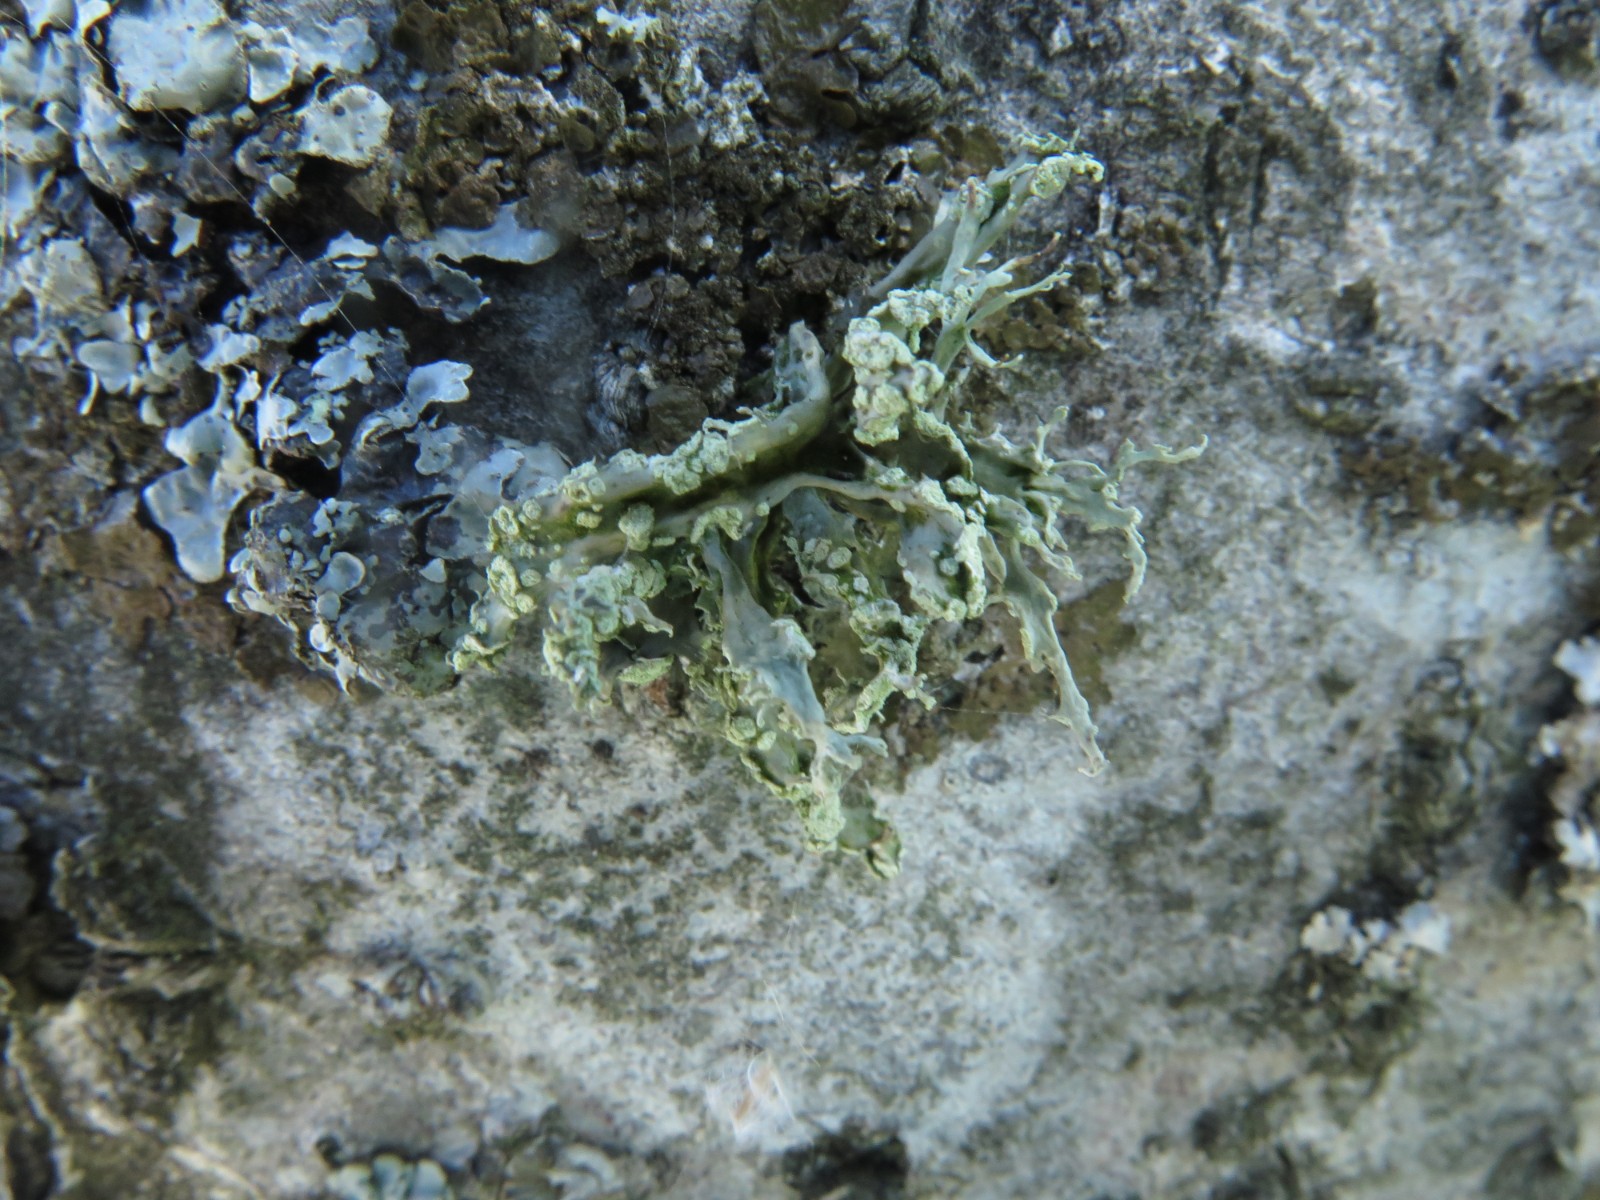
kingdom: Fungi
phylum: Ascomycota
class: Lecanoromycetes
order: Lecanorales
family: Ramalinaceae
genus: Ramalina
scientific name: Ramalina farinacea
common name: melet grenlav
